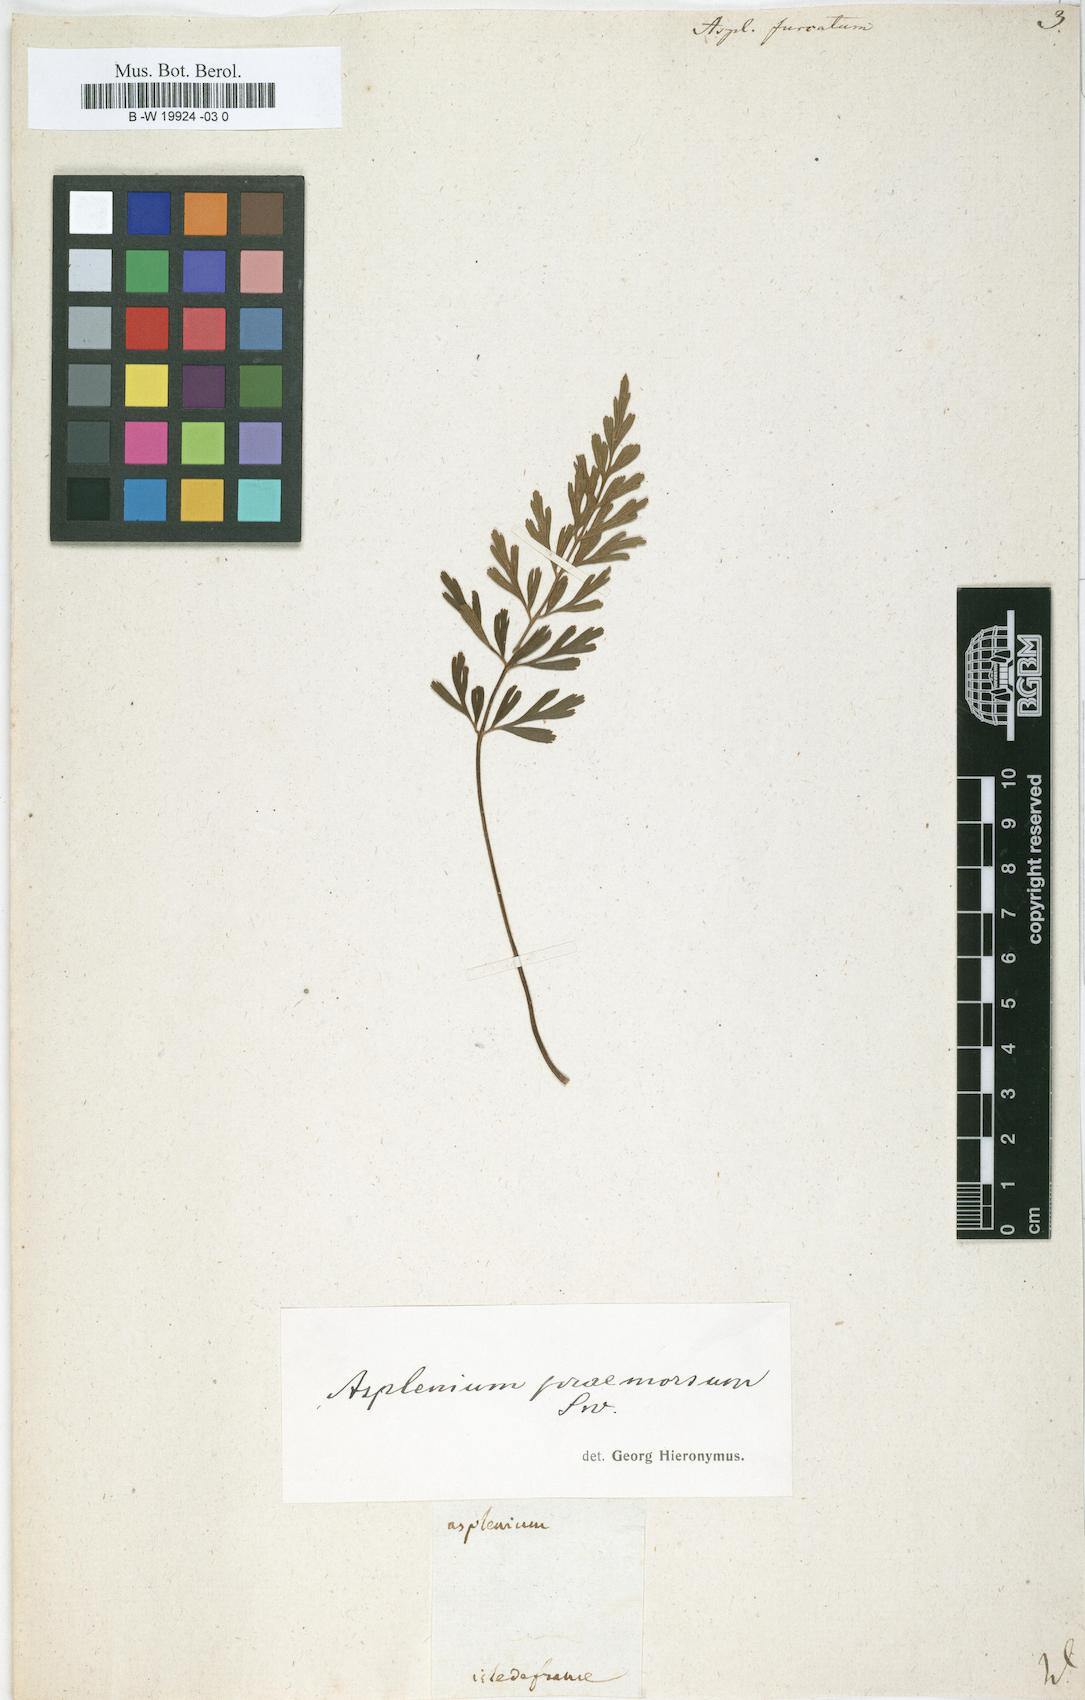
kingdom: Plantae
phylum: Tracheophyta
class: Polypodiopsida
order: Polypodiales
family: Aspleniaceae
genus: Asplenium
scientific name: Asplenium furcatum
